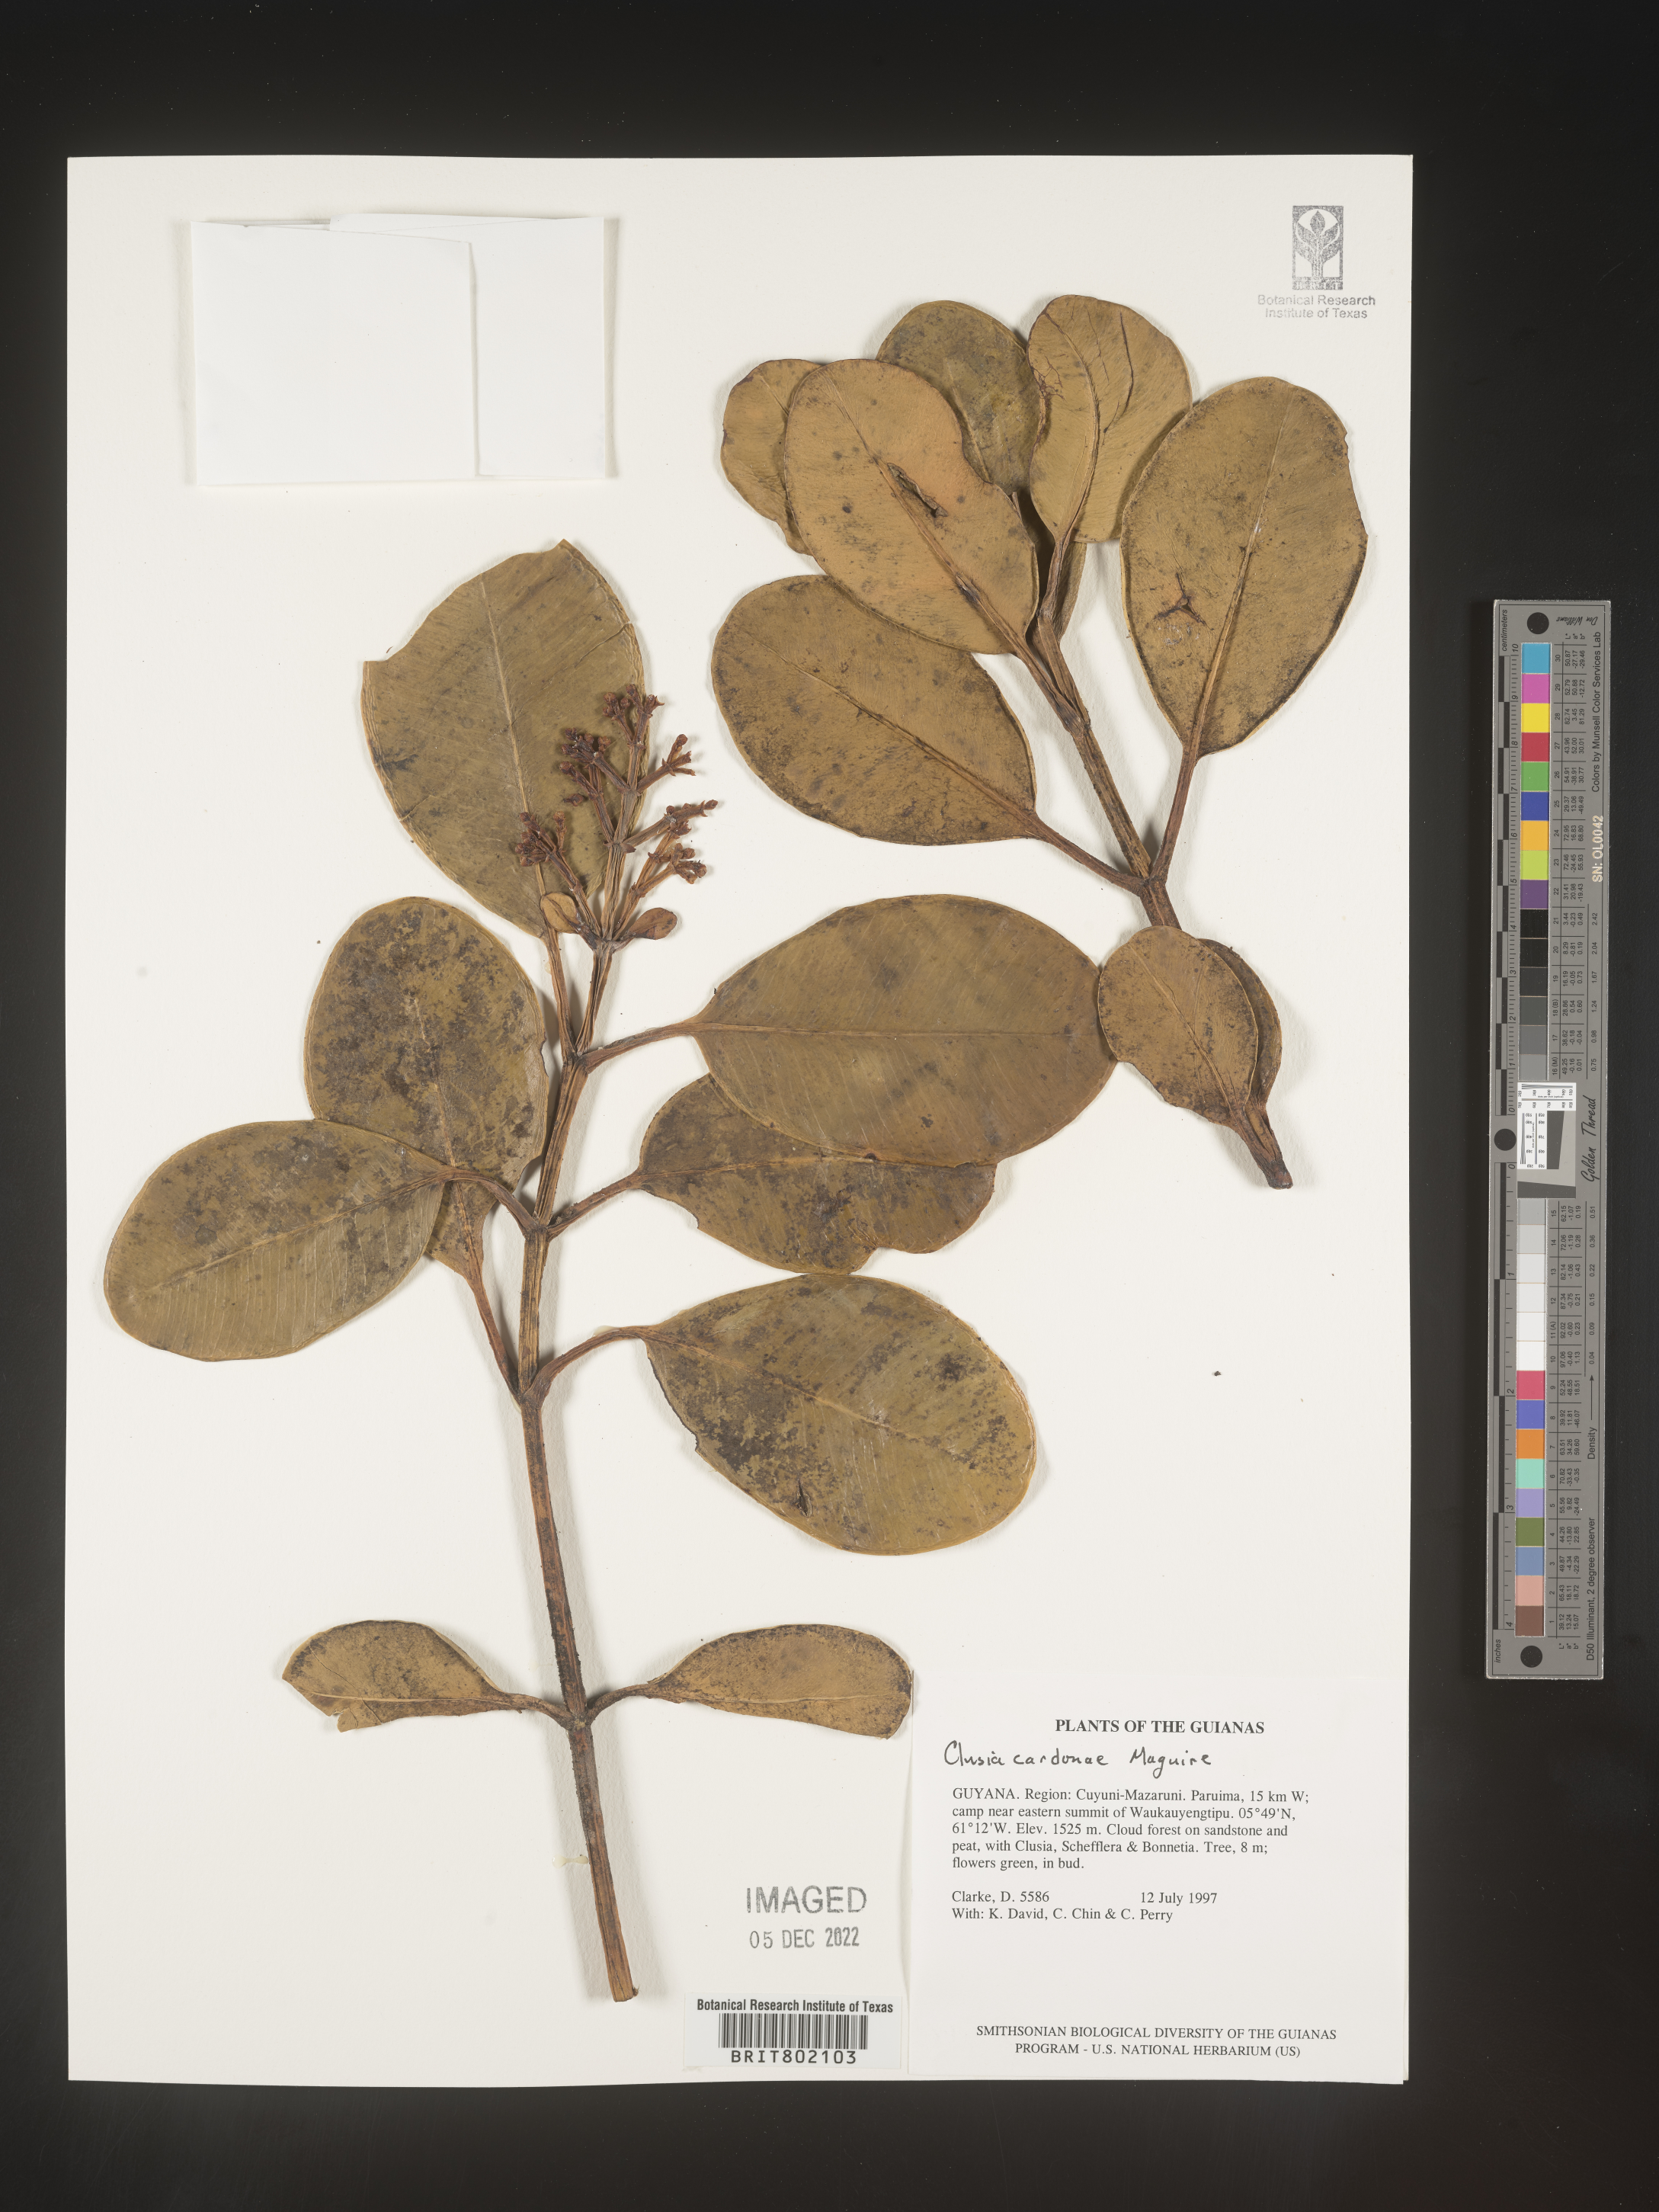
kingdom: Plantae
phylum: Tracheophyta
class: Magnoliopsida
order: Malpighiales
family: Clusiaceae
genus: Clusia
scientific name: Clusia
